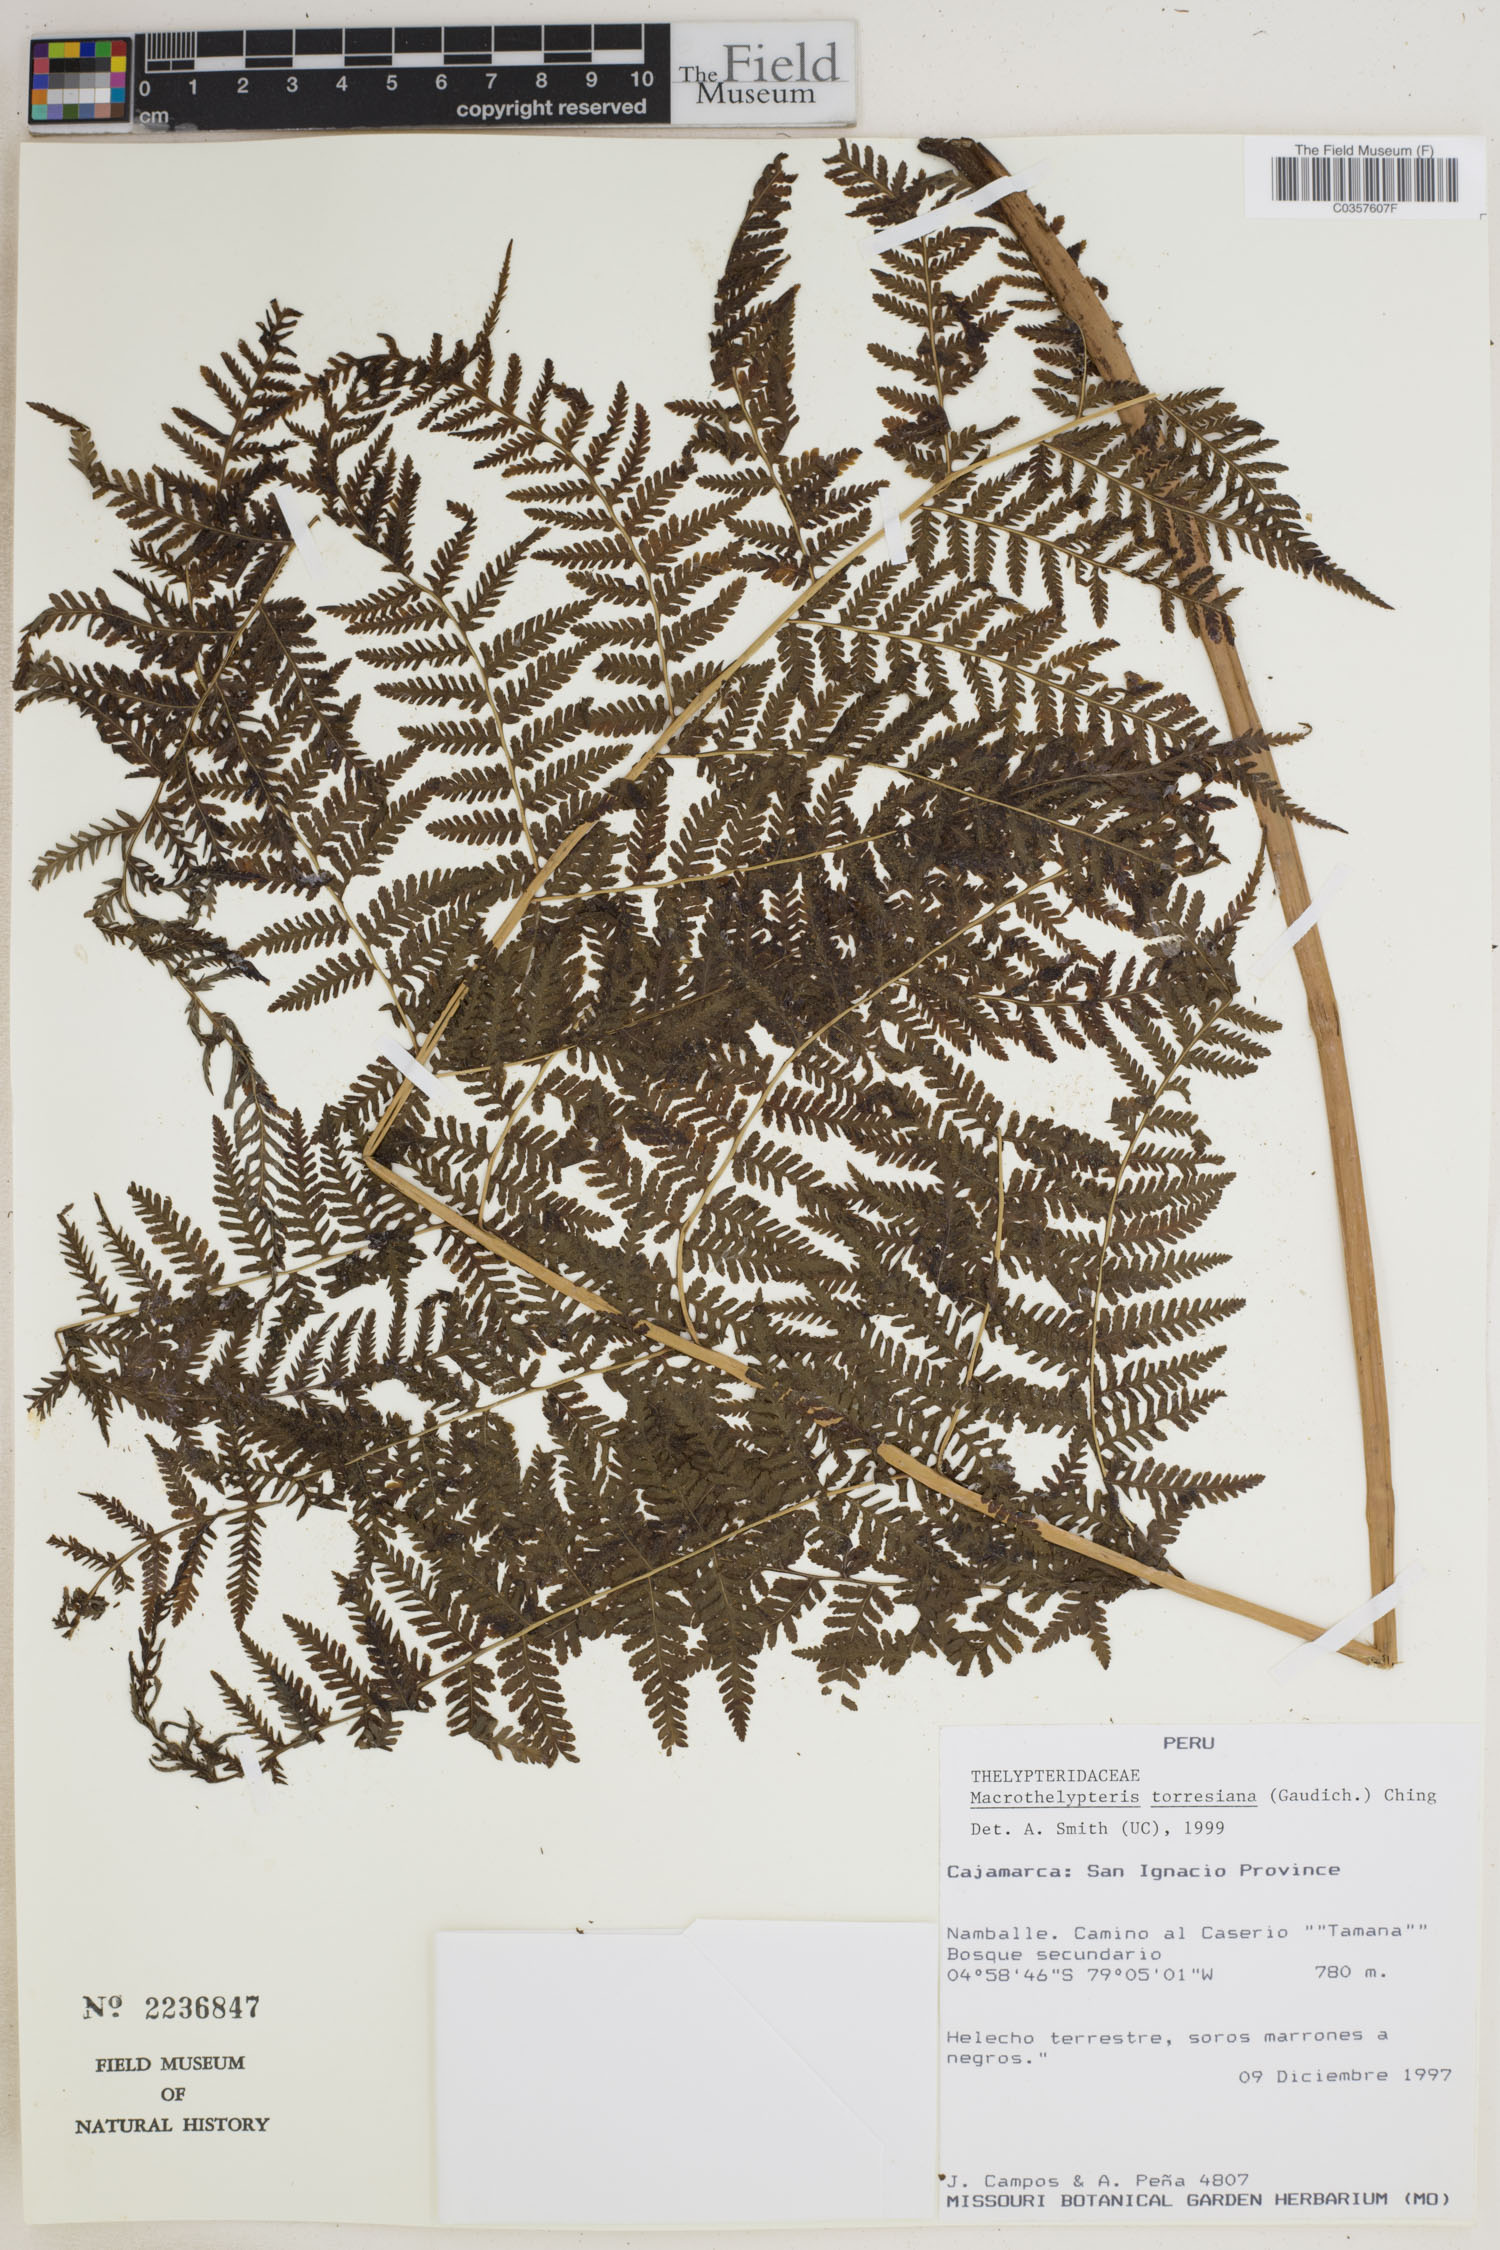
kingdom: Plantae
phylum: Tracheophyta
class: Polypodiopsida
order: Polypodiales
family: Thelypteridaceae
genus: Macrothelypteris
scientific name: Macrothelypteris torresiana
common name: Swordfern
